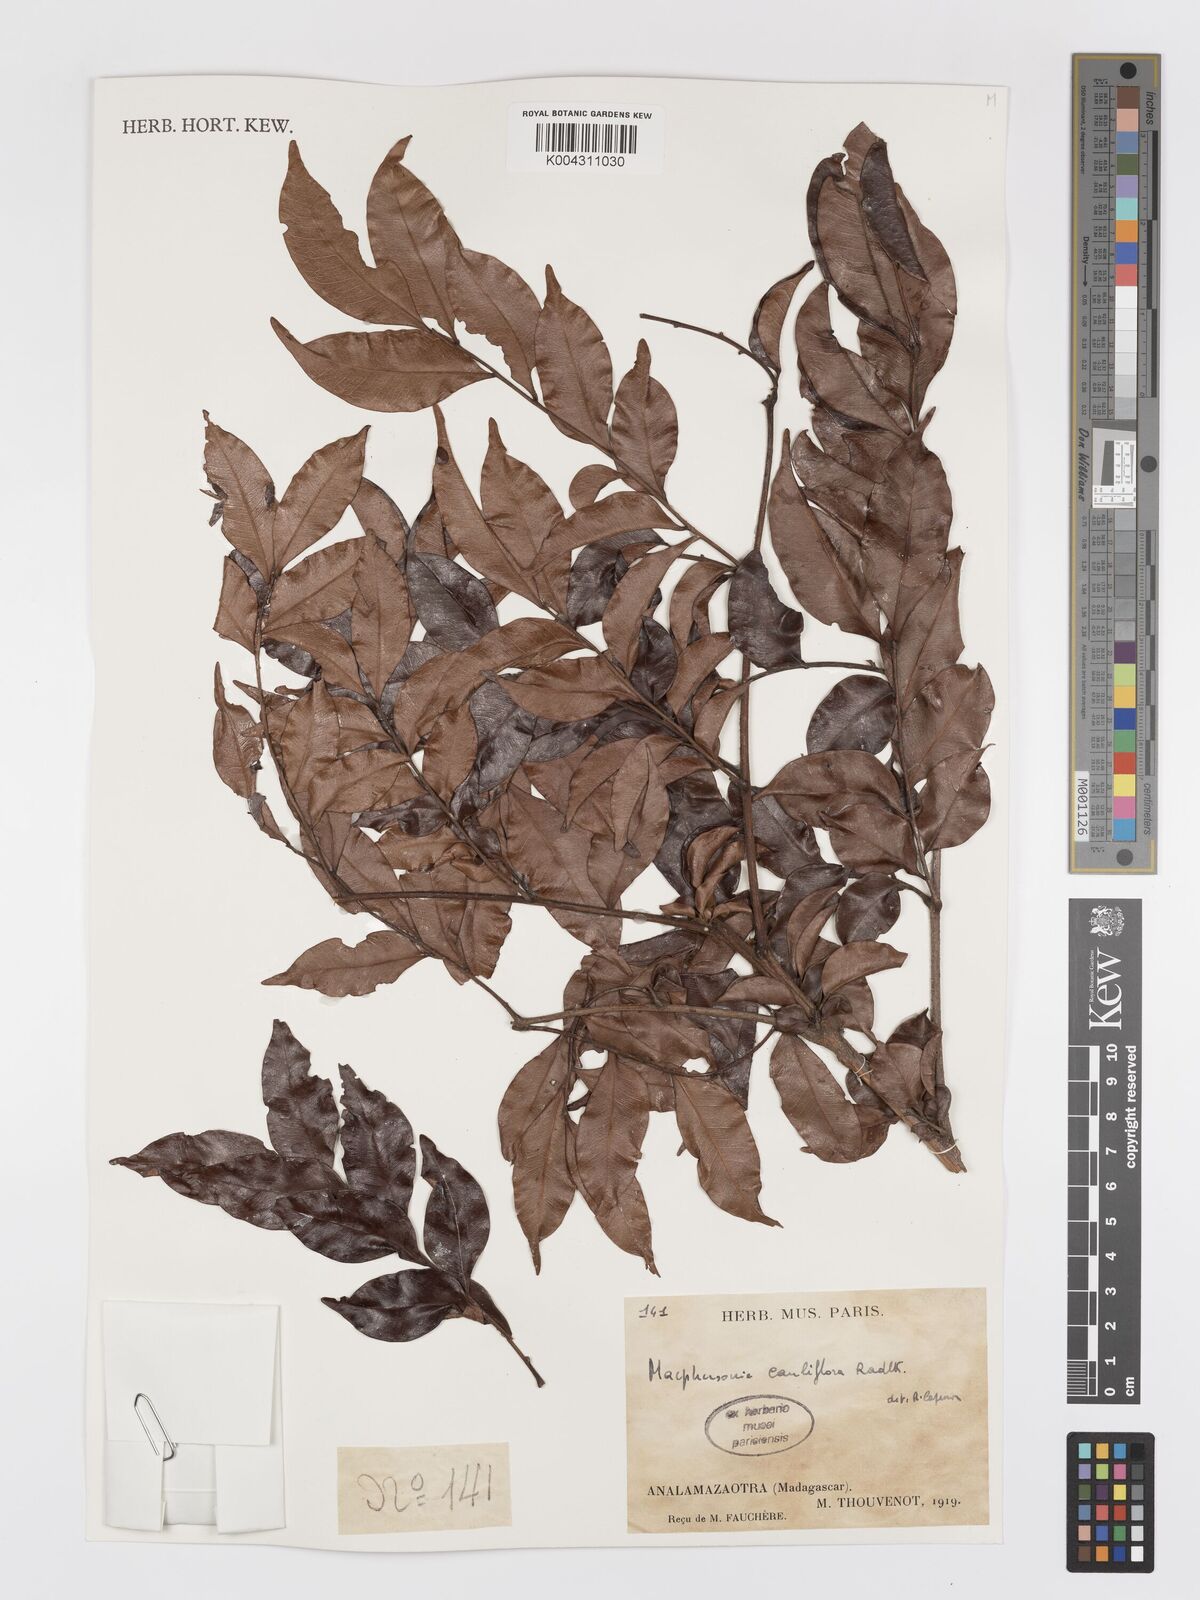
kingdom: Plantae
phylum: Tracheophyta
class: Magnoliopsida
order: Sapindales
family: Sapindaceae
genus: Macphersonia
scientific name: Macphersonia cauliflora
